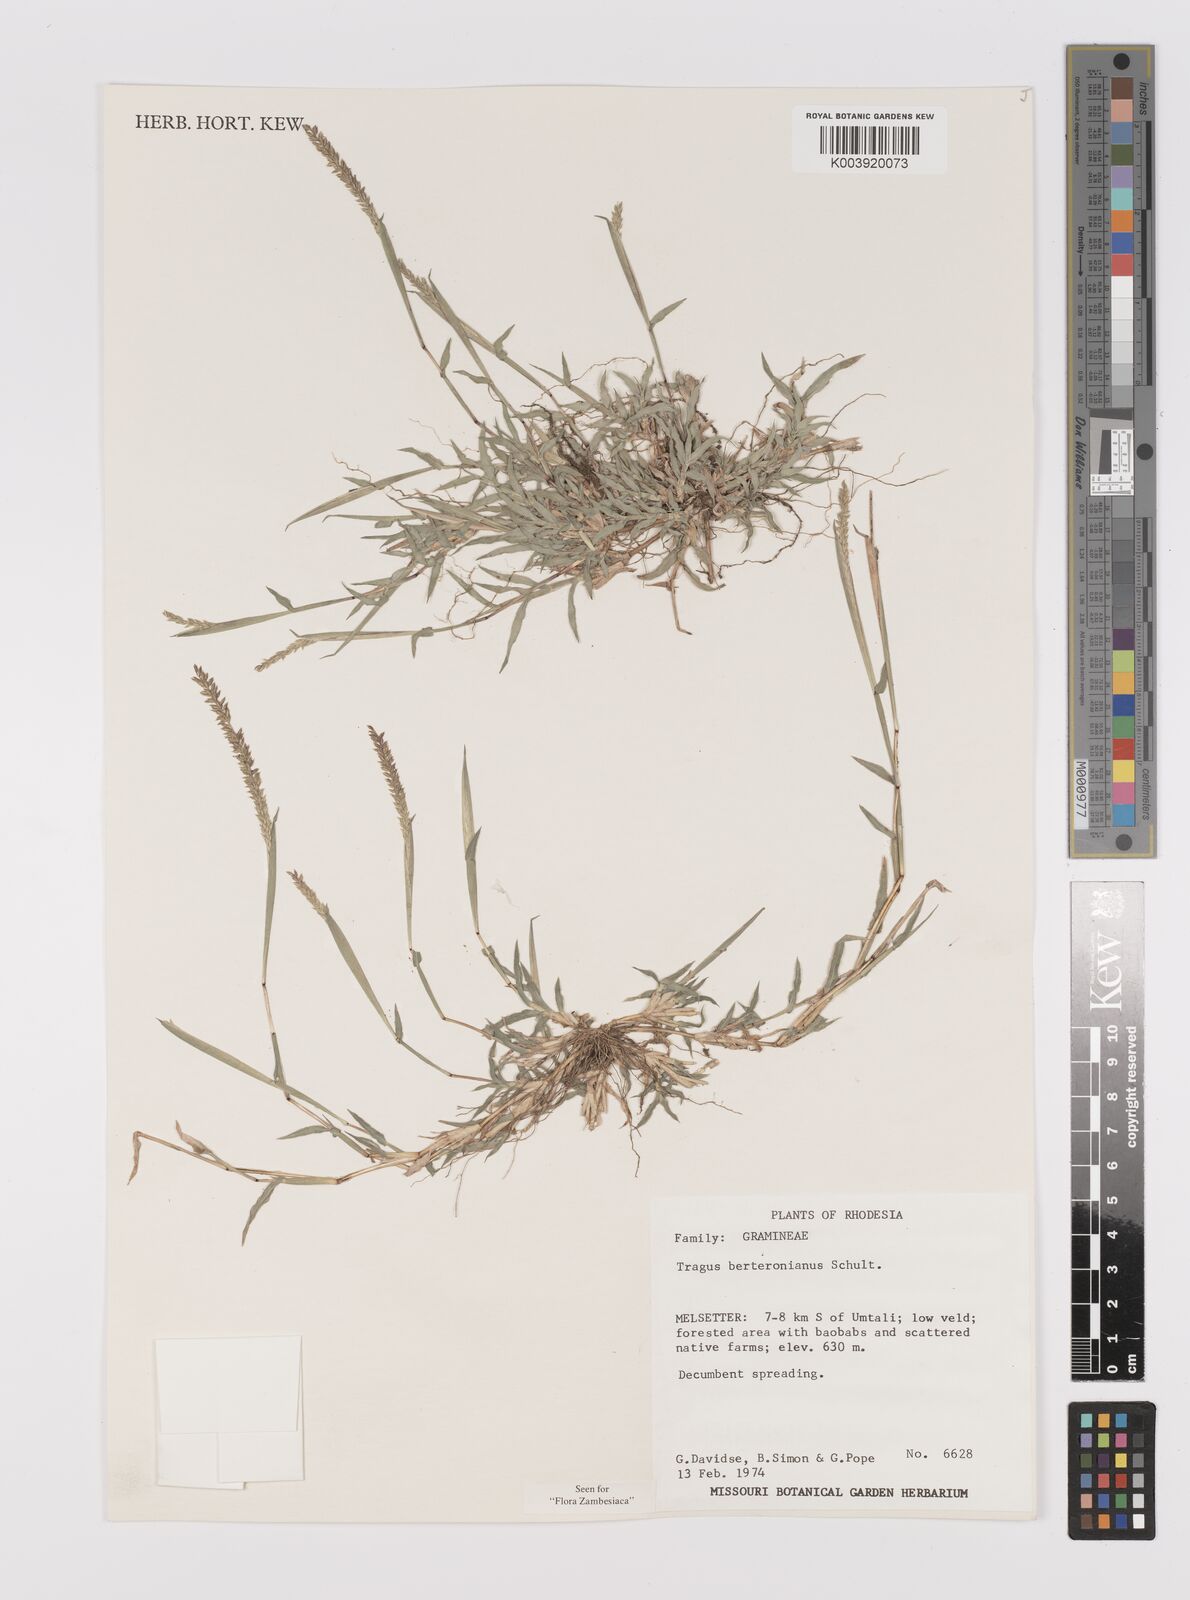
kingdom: Plantae
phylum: Tracheophyta
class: Liliopsida
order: Poales
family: Poaceae
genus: Tragus
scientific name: Tragus berteronianus
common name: African bur-grass
